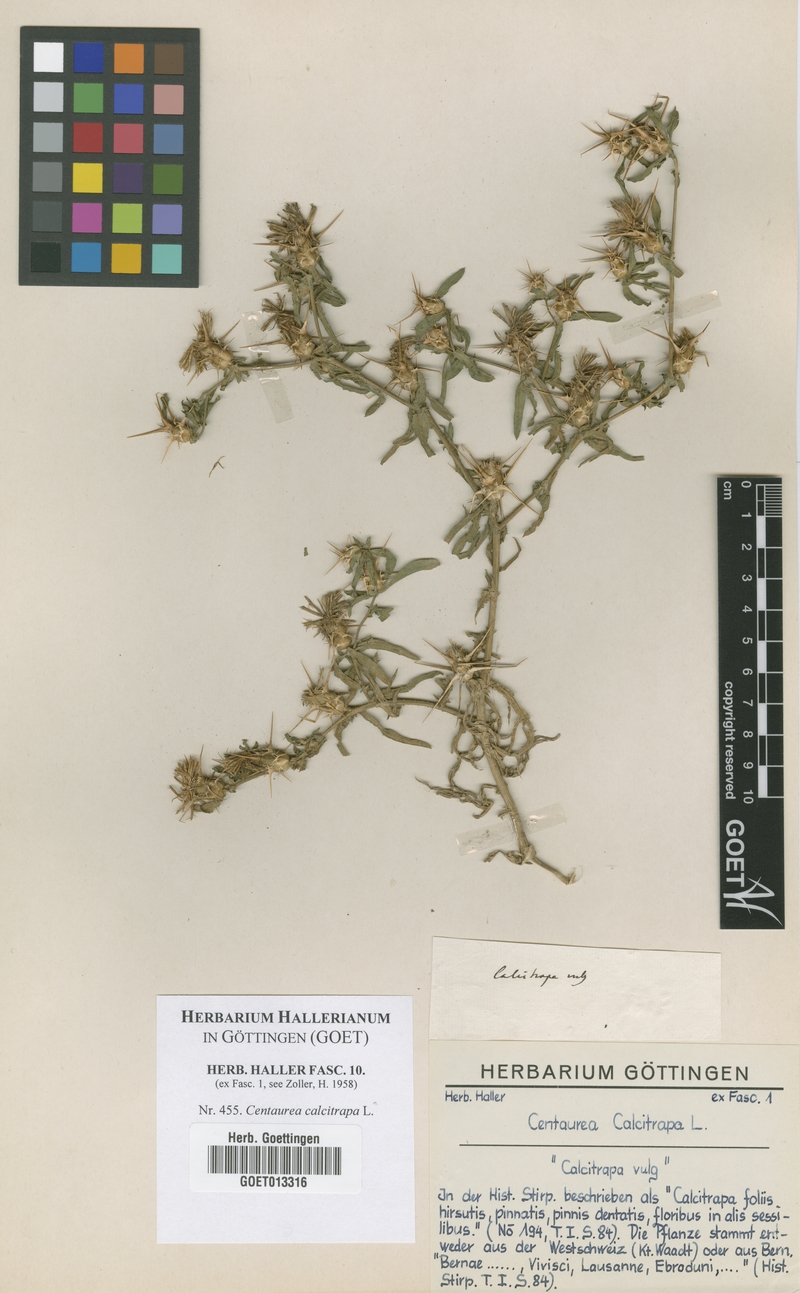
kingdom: Plantae
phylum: Tracheophyta
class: Magnoliopsida
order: Asterales
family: Asteraceae
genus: Centaurea
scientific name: Centaurea calcitrapa
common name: Red star-thistle
